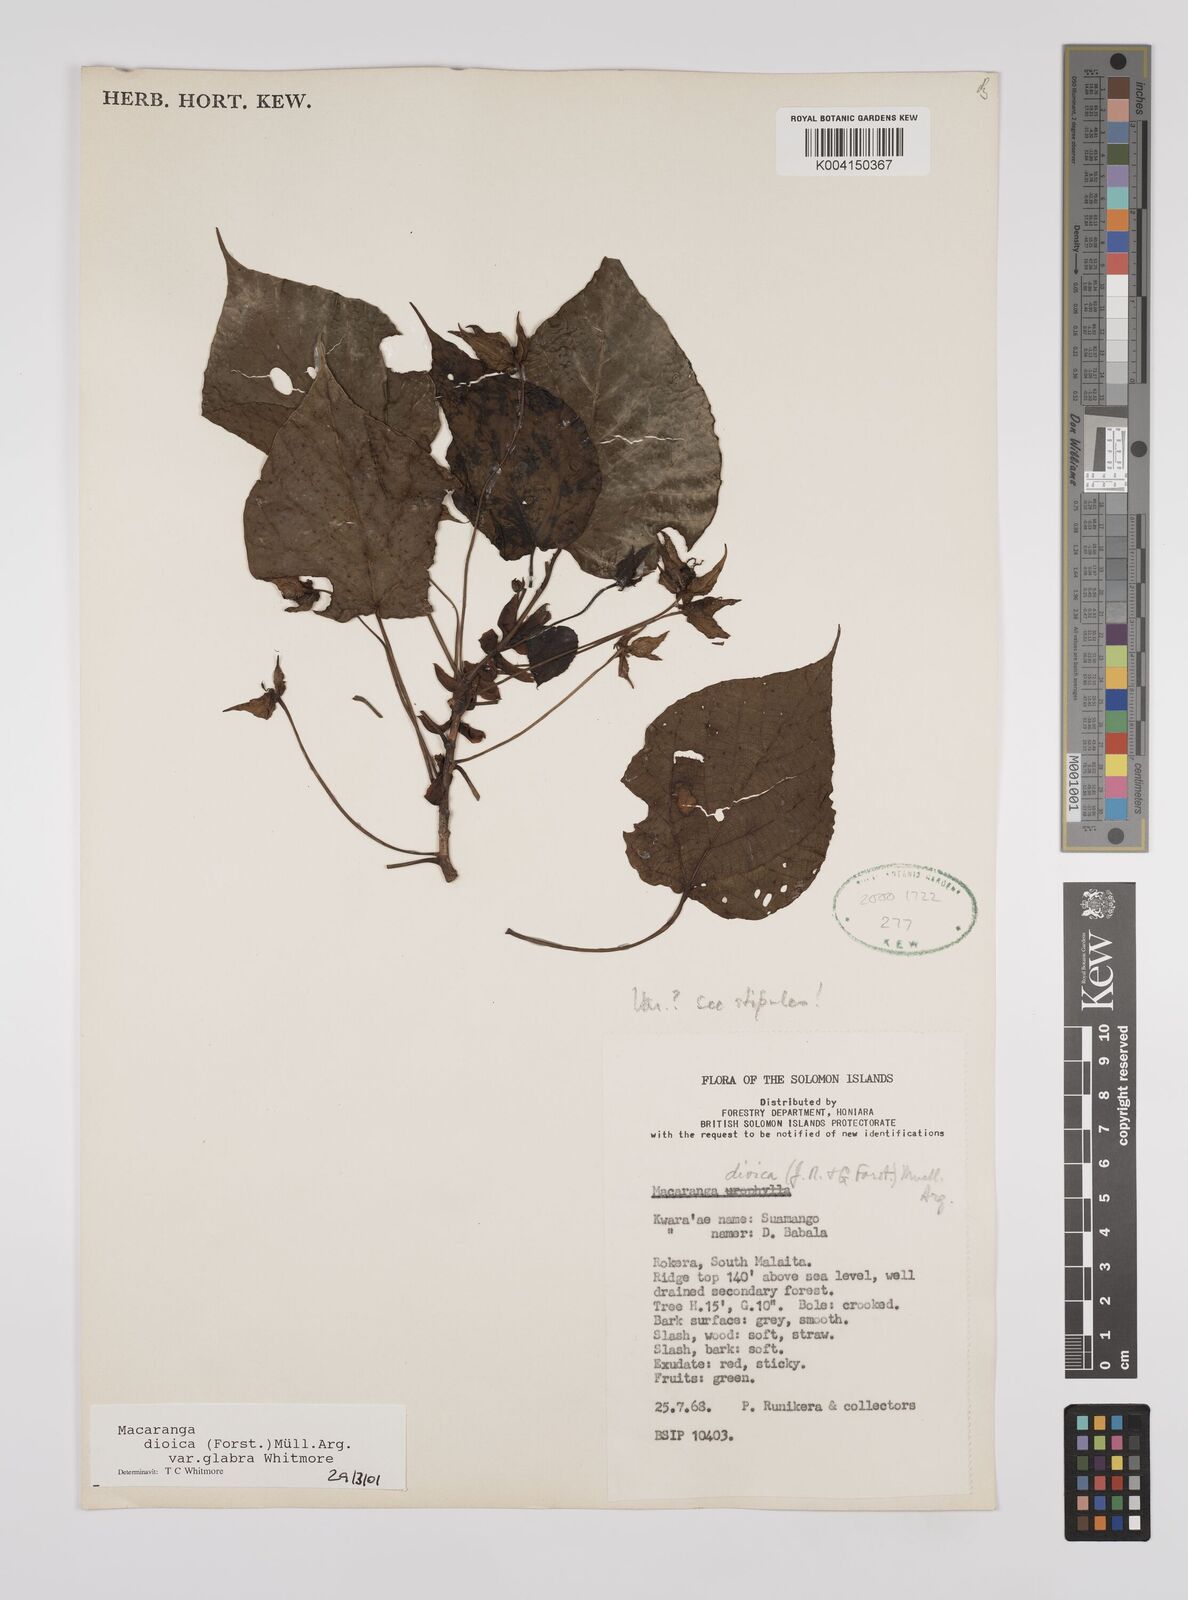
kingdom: Plantae
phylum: Tracheophyta
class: Magnoliopsida
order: Malpighiales
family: Euphorbiaceae
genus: Macaranga
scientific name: Macaranga dioica
